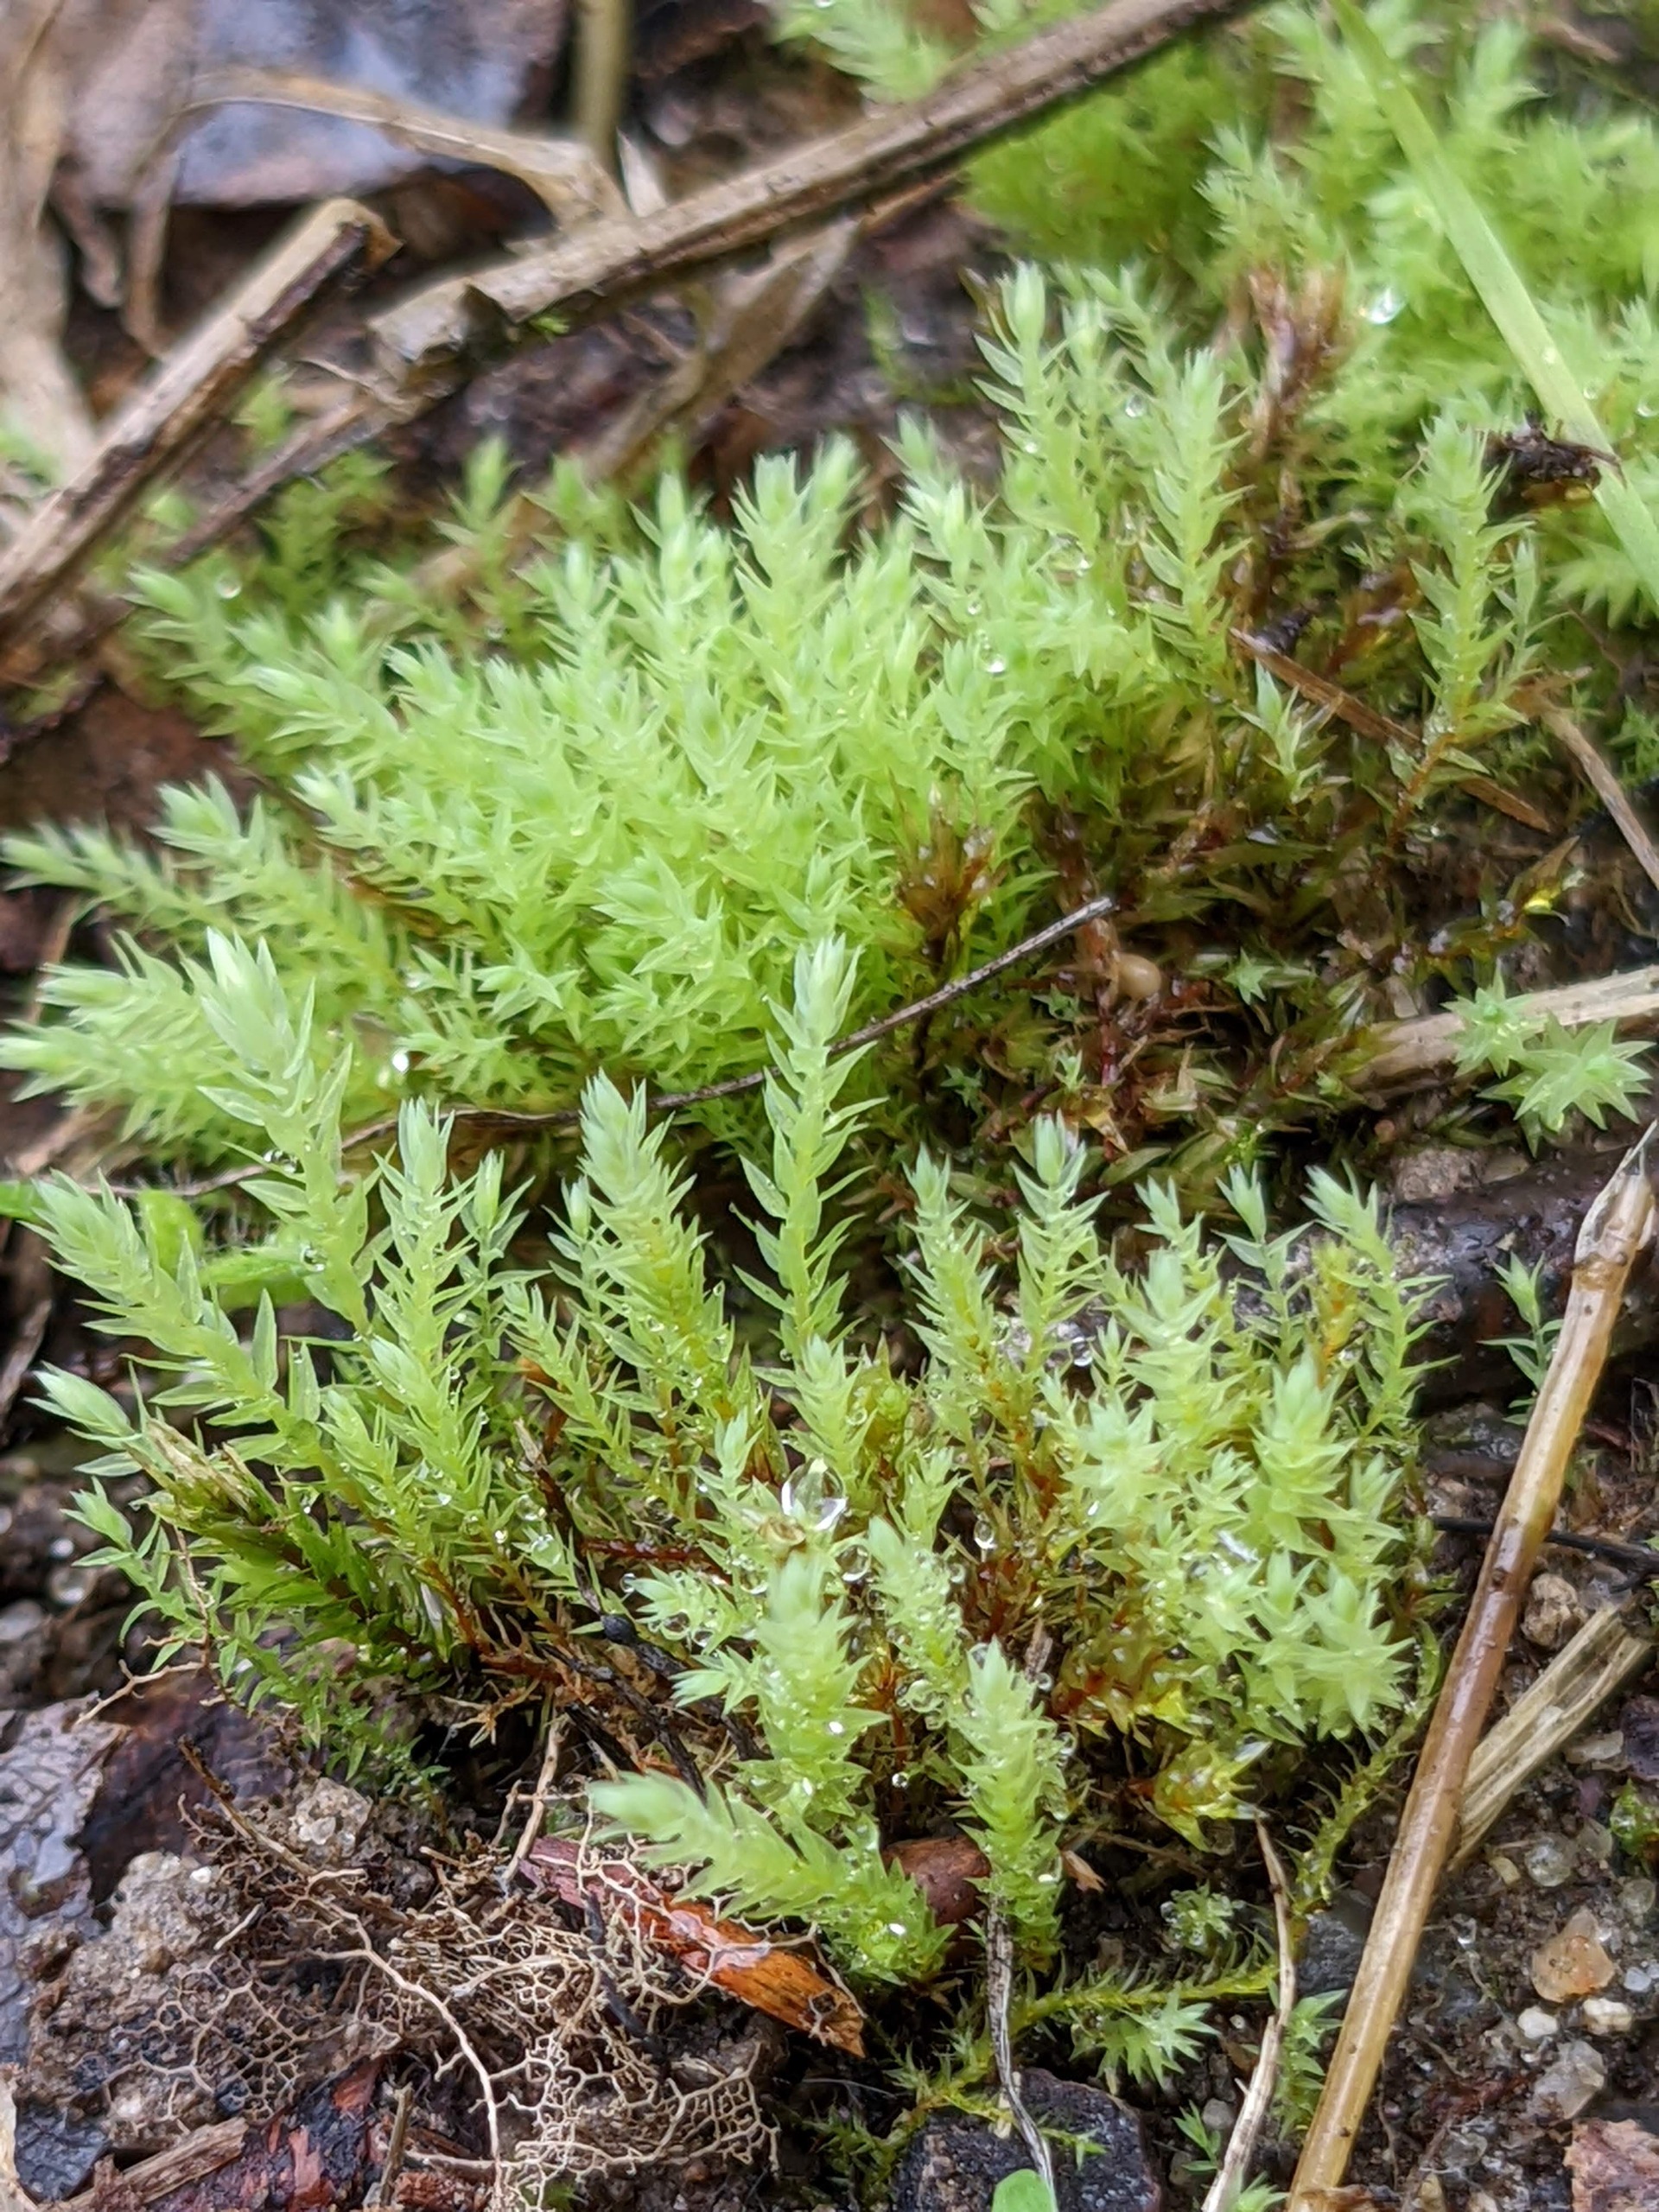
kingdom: Plantae
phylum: Bryophyta
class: Bryopsida
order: Bryales
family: Mniaceae
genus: Pohlia
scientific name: Pohlia wahlenbergii
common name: Lysegrøn voksmos
